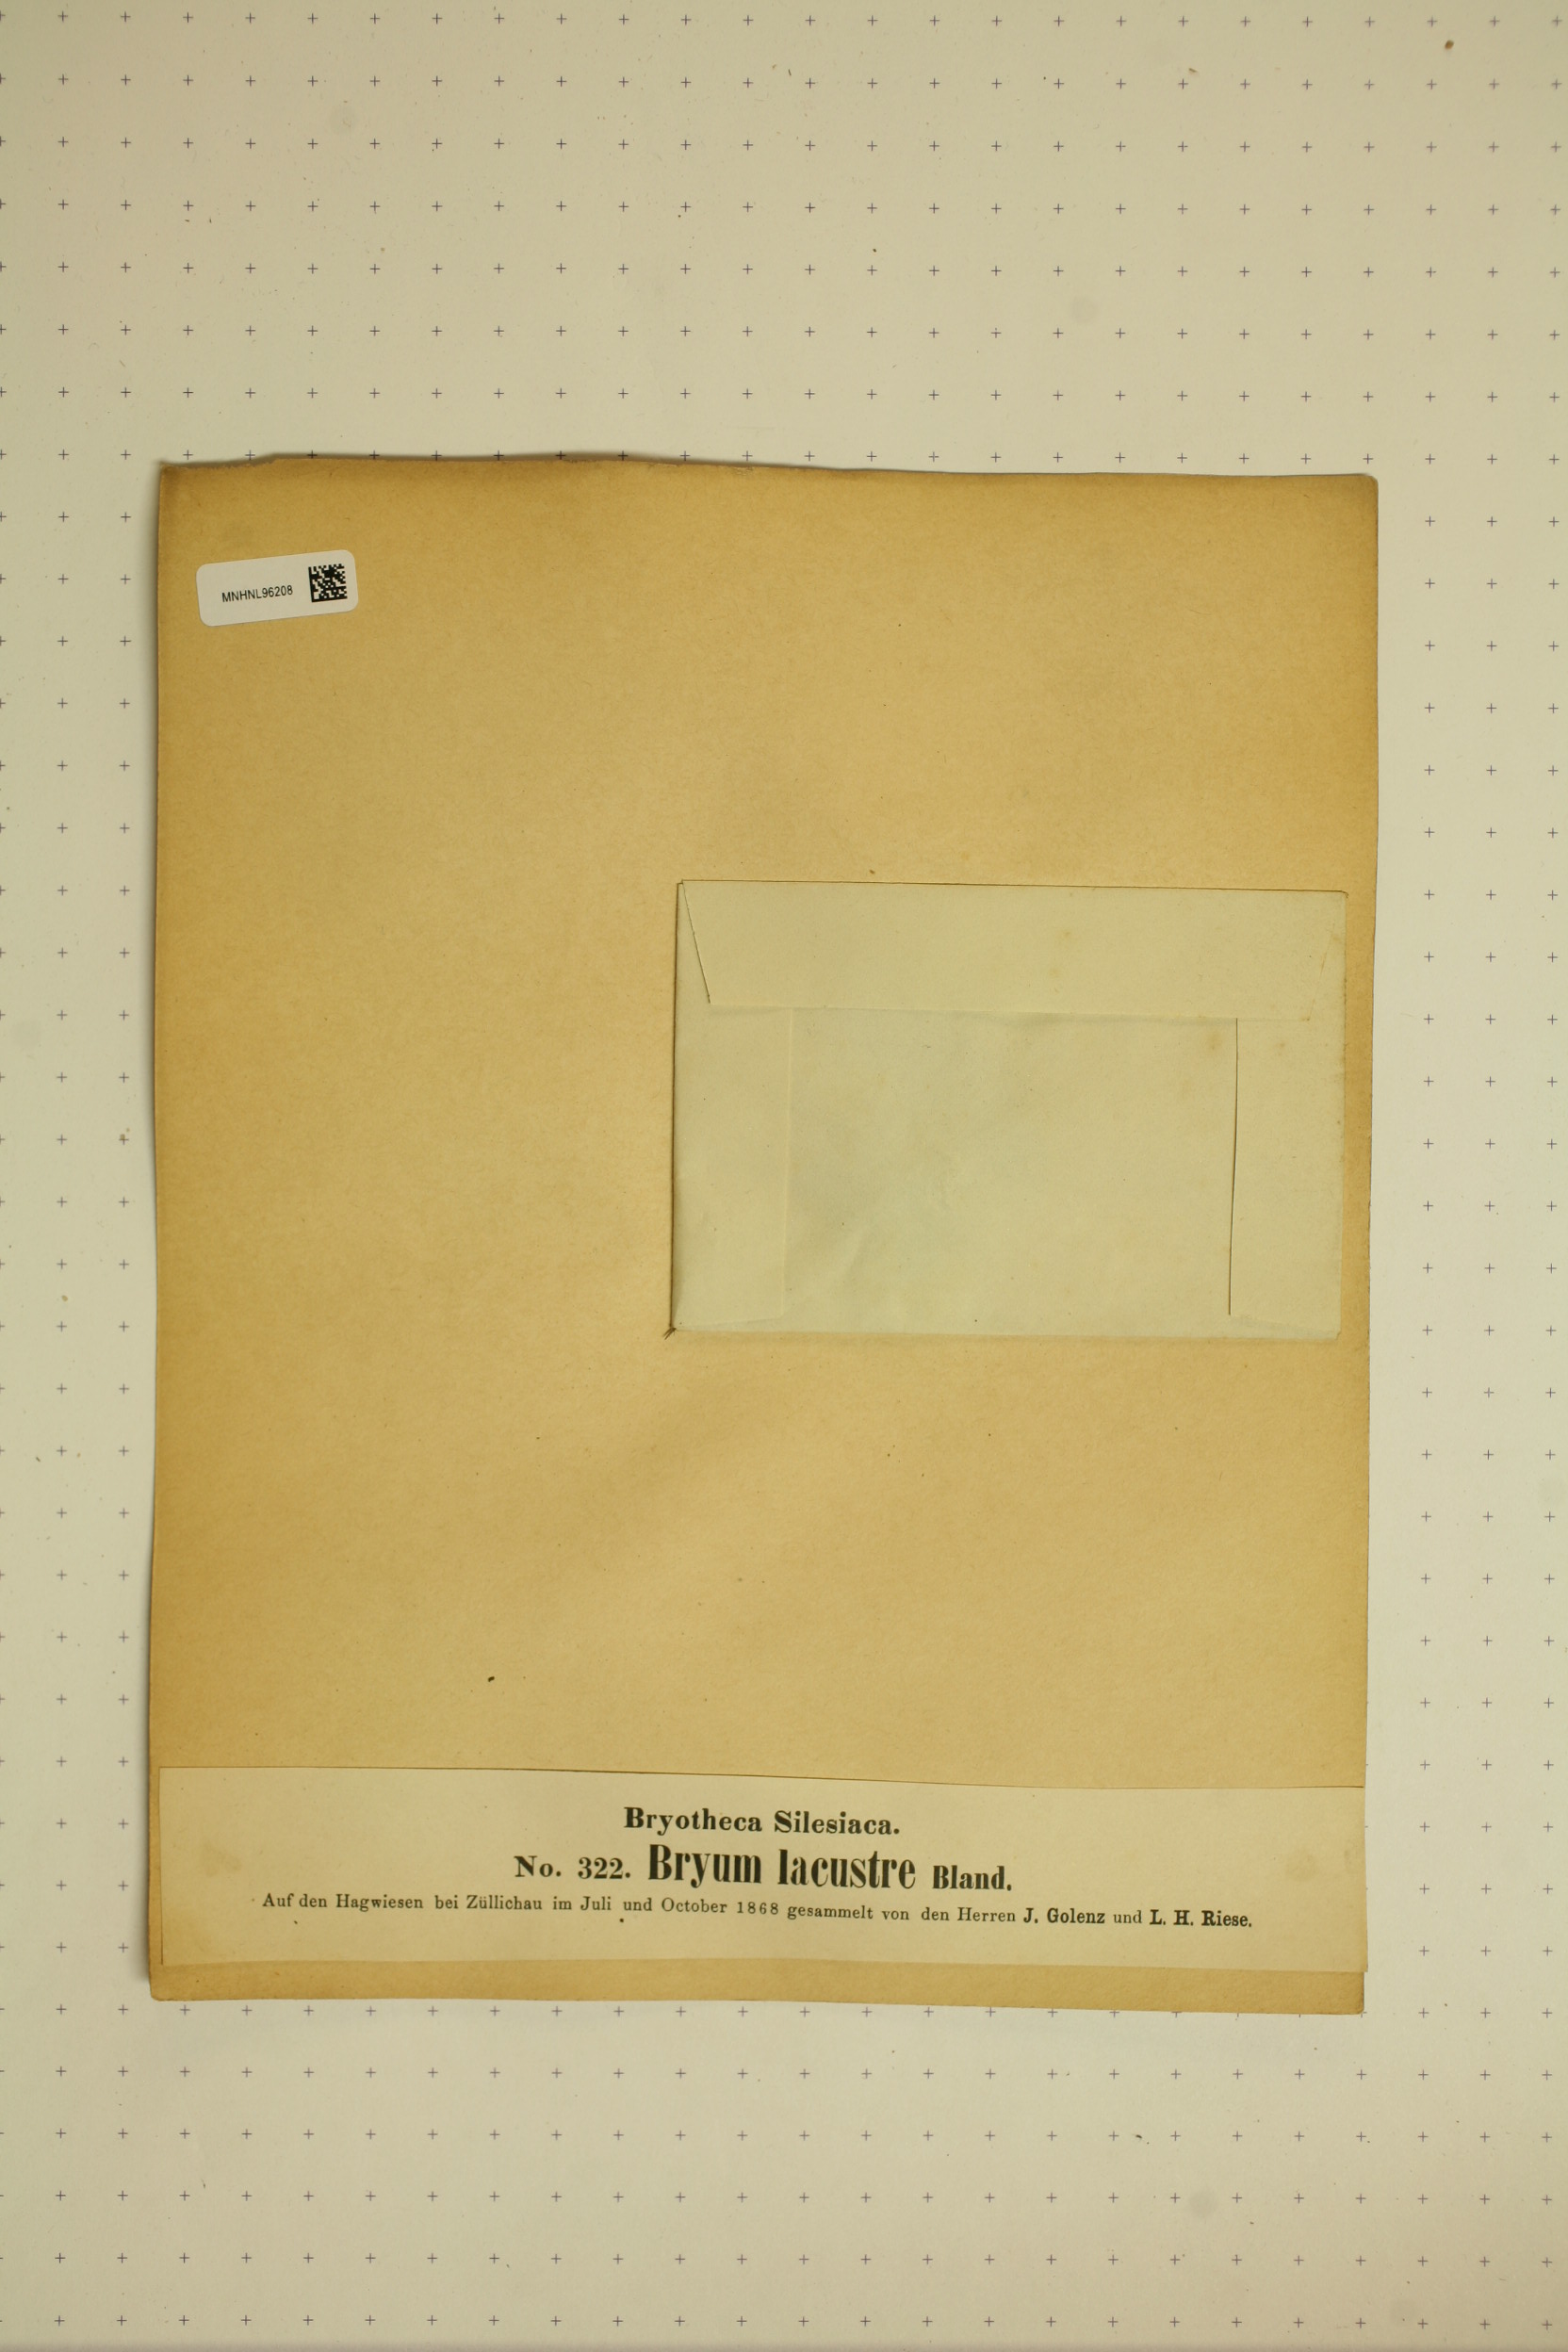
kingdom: Plantae
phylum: Bryophyta
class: Bryopsida
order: Bryales
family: Bryaceae
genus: Ptychostomum
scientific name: Ptychostomum knowltonii
